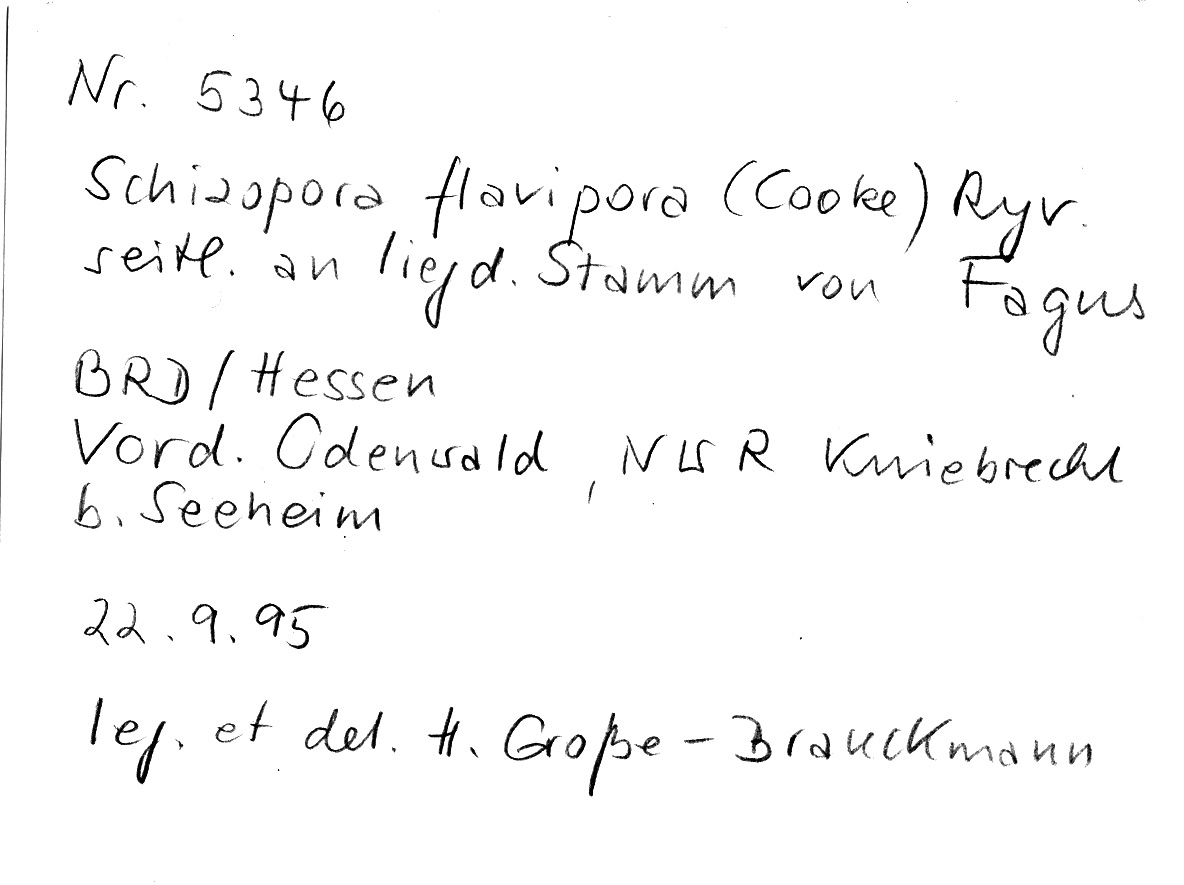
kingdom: Fungi
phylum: Basidiomycota
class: Agaricomycetes
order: Hymenochaetales
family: Schizoporaceae
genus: Xylodon
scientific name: Xylodon flaviporus
